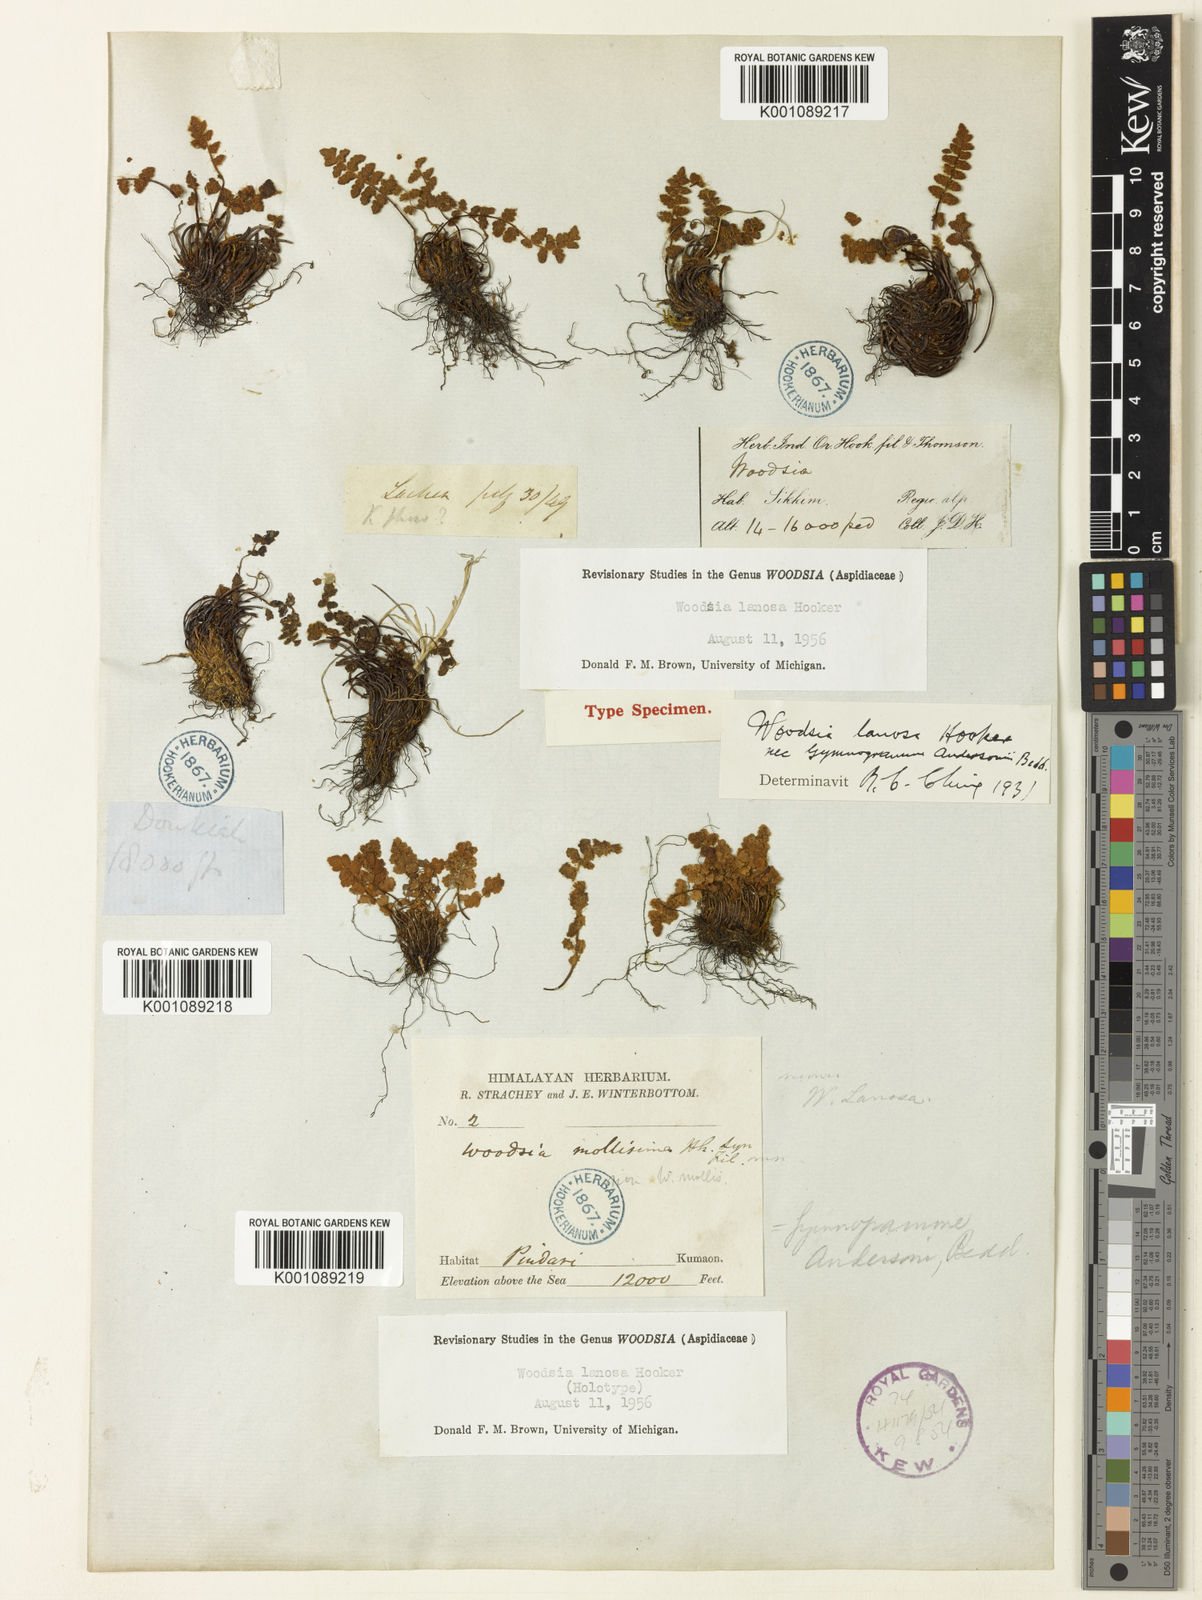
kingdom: Plantae
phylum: Tracheophyta
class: Polypodiopsida
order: Polypodiales
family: Woodsiaceae
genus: Woodsia
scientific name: Woodsia lanosa
